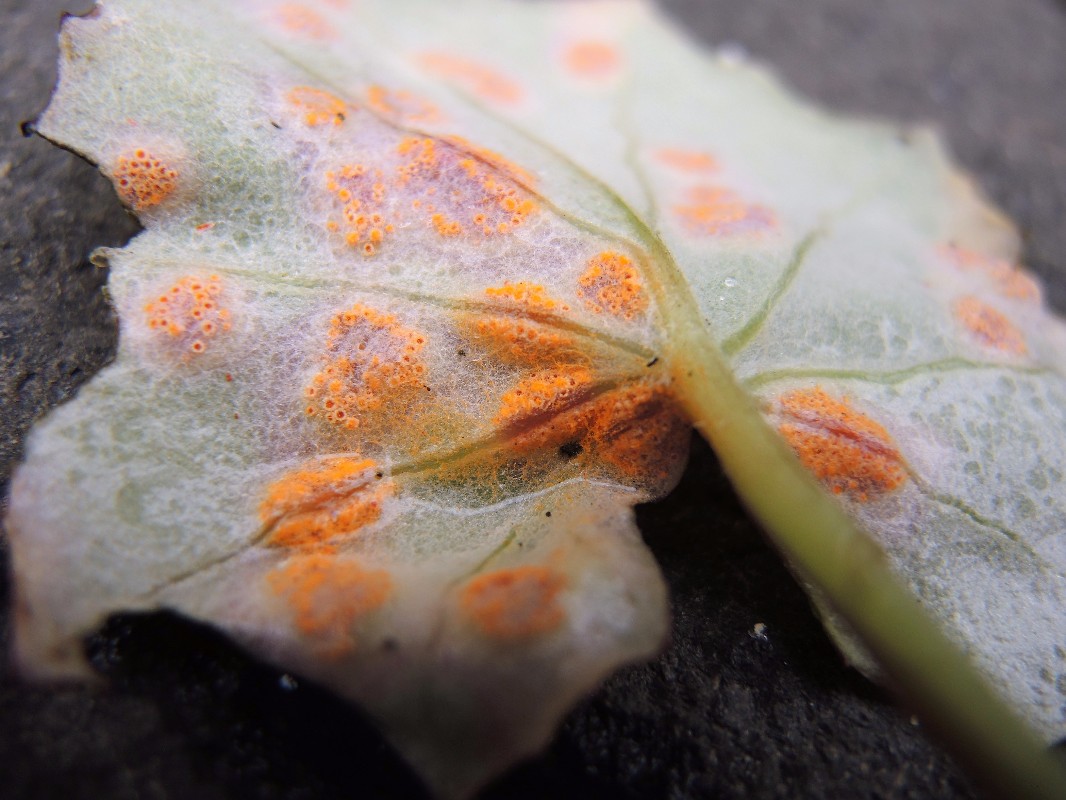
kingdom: Fungi
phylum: Basidiomycota
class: Pucciniomycetes
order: Pucciniales
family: Pucciniaceae
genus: Puccinia
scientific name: Puccinia poarum
